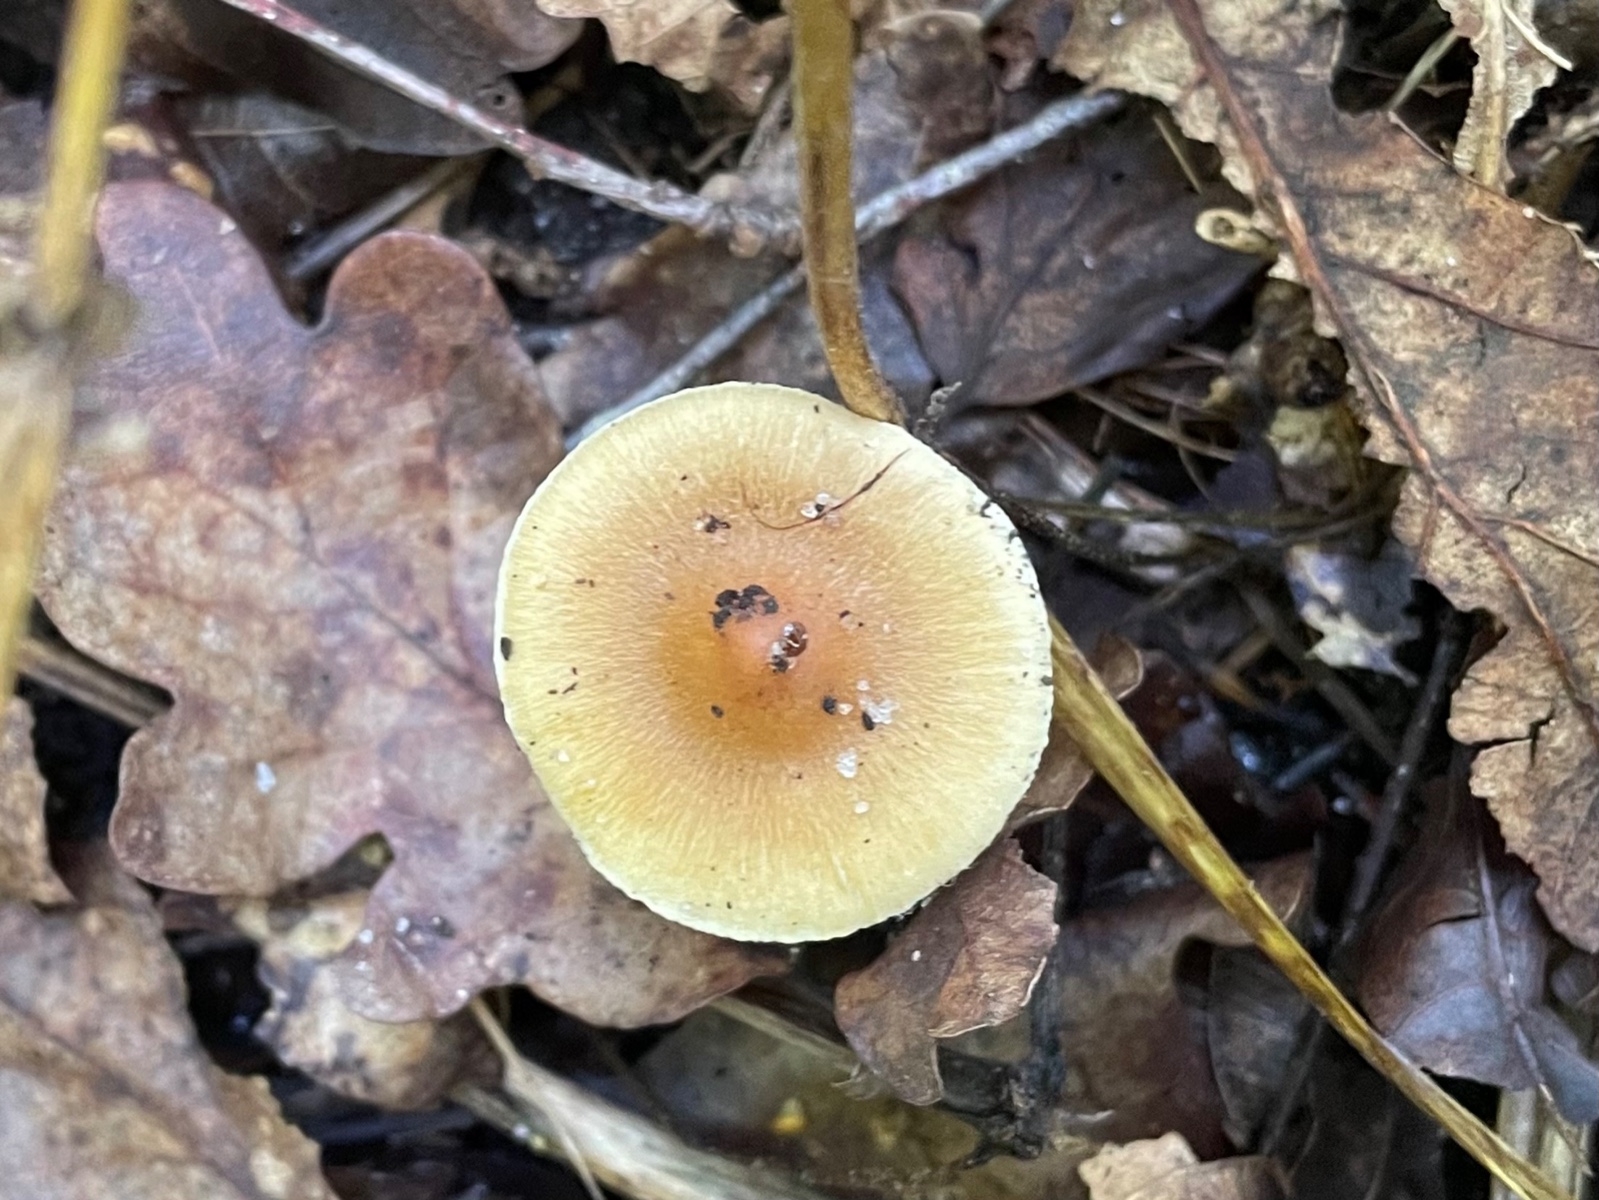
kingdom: Fungi
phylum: Basidiomycota
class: Agaricomycetes
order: Agaricales
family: Inocybaceae
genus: Inocybe
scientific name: Inocybe mixtilis
